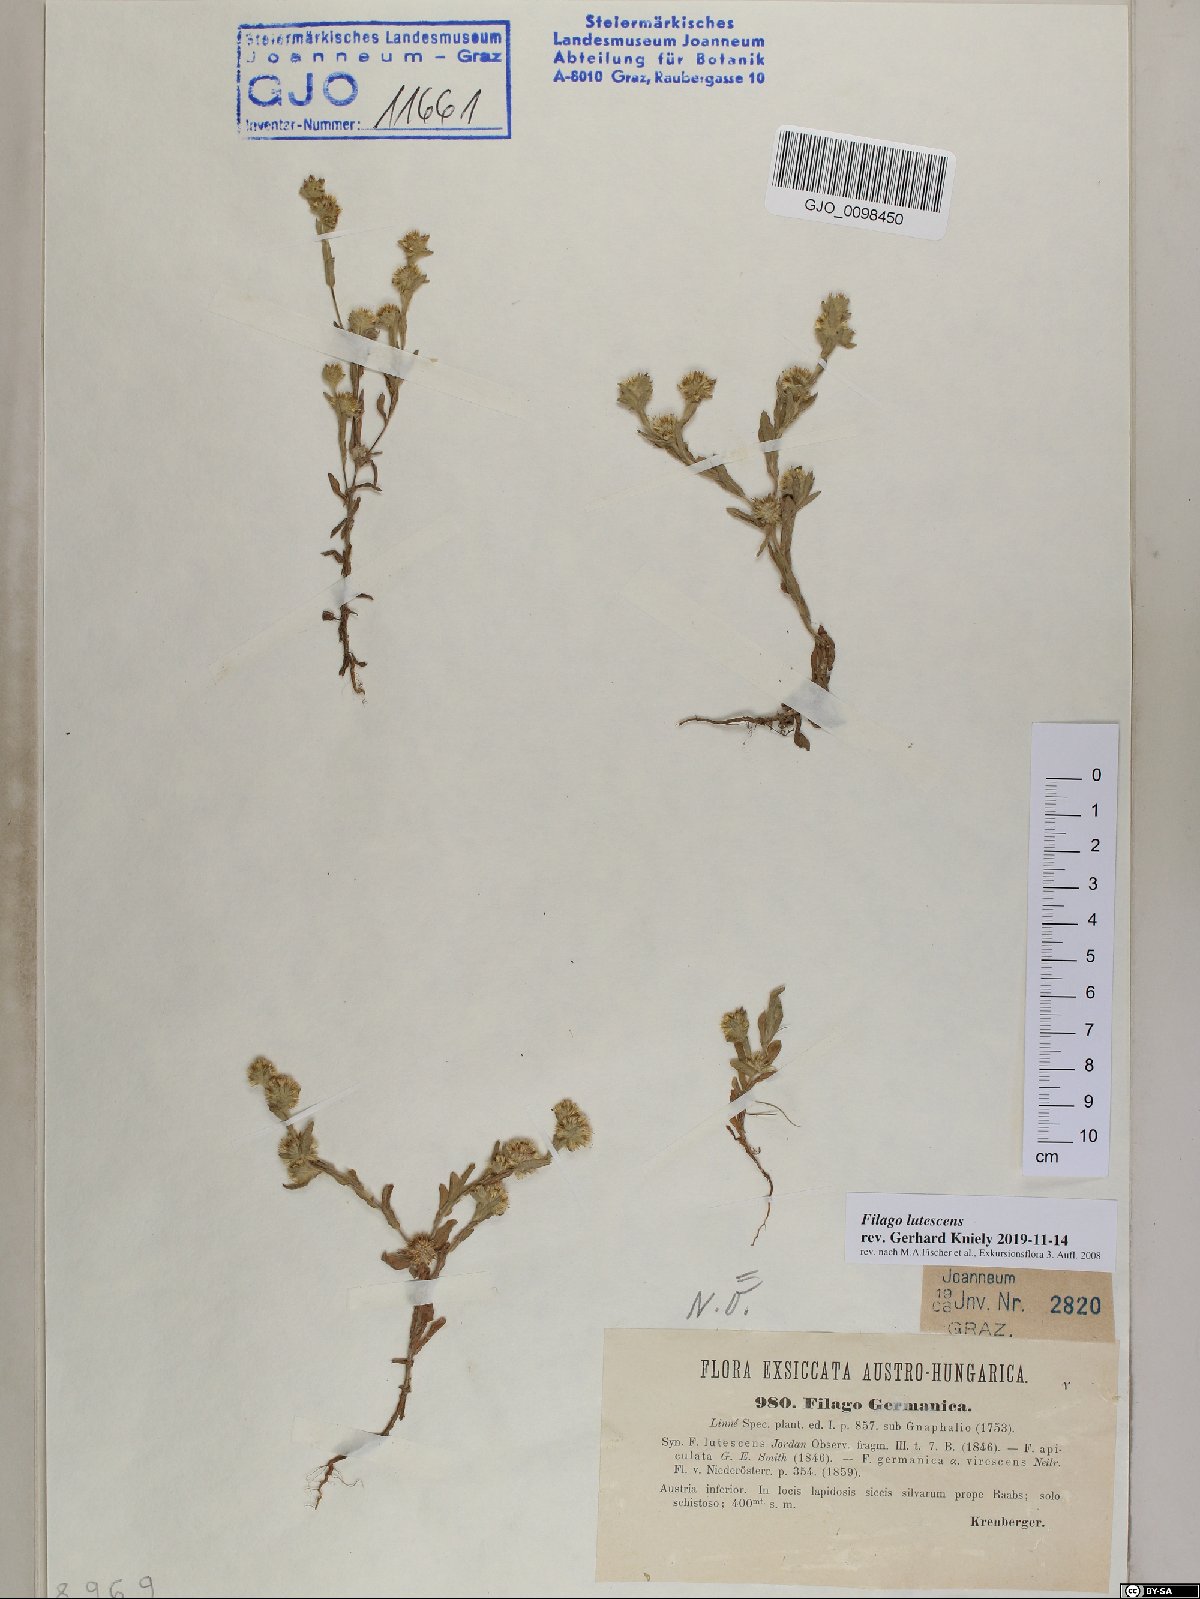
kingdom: Plantae
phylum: Tracheophyta
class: Magnoliopsida
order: Asterales
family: Asteraceae
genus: Filago
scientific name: Filago lutescens
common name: Red-tipped cudweed
